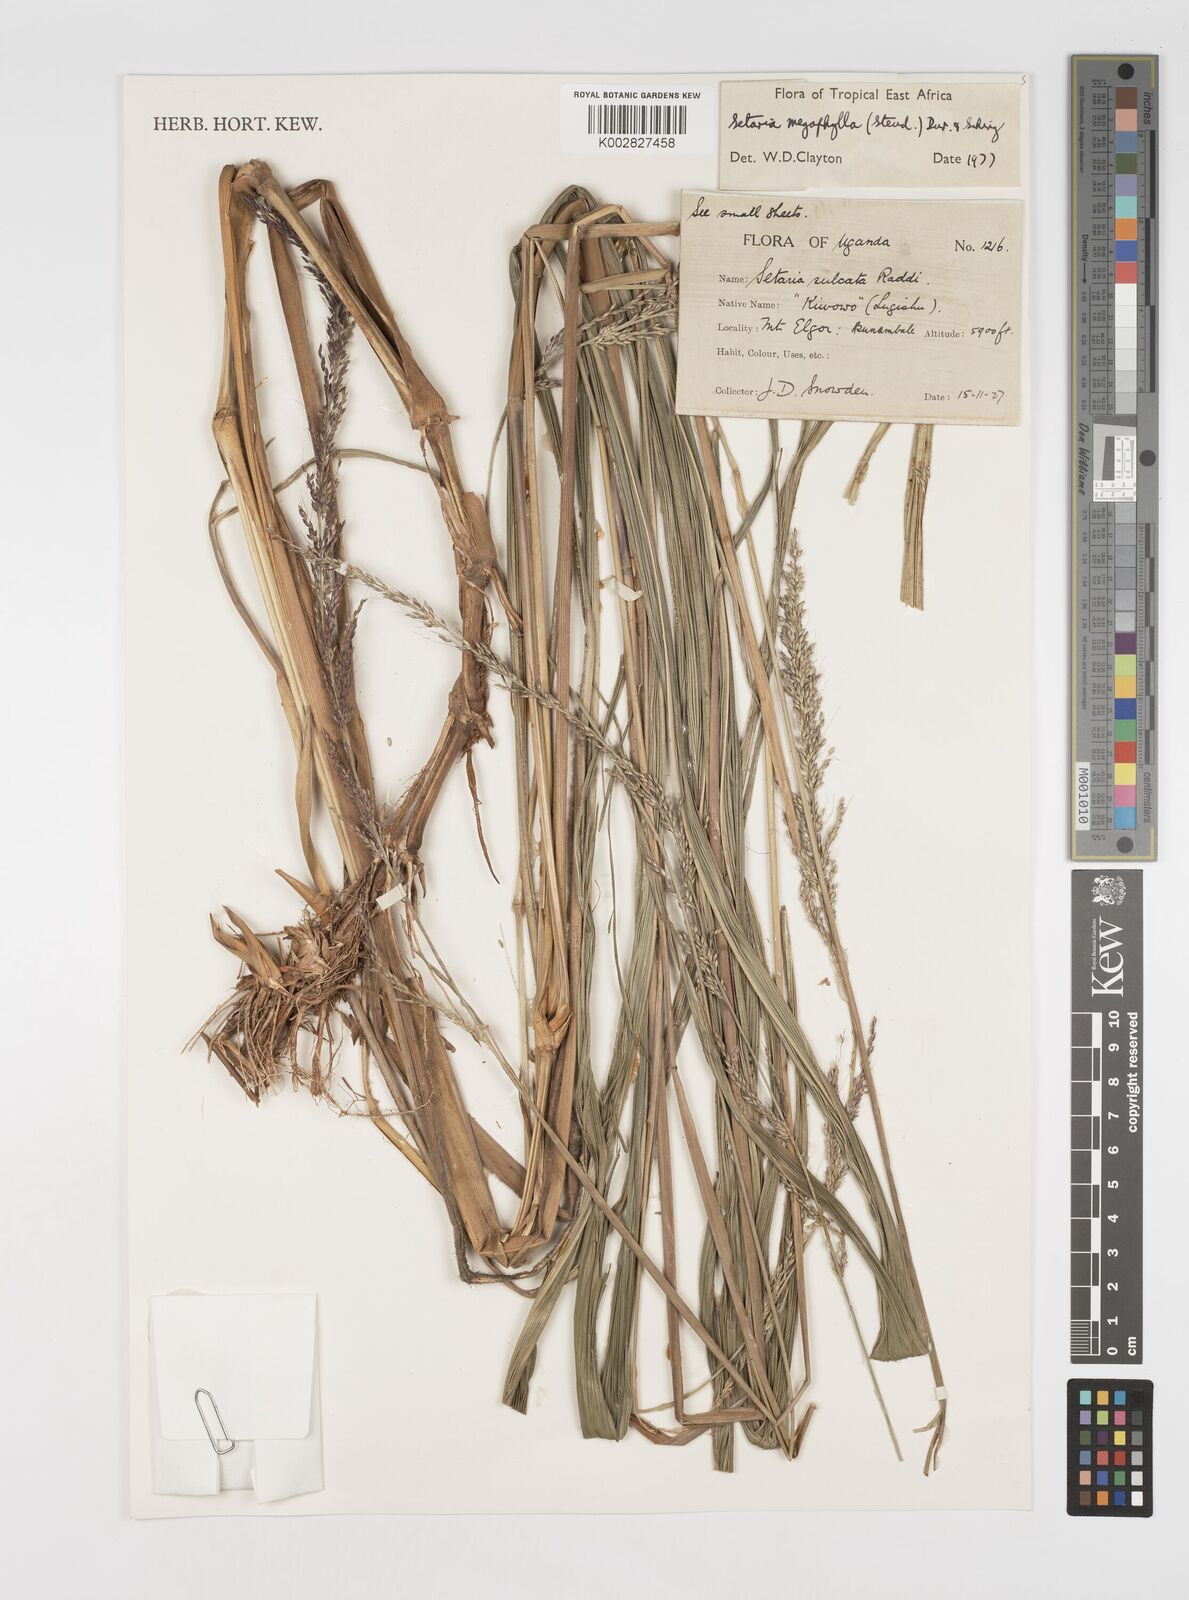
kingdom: Plantae
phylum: Tracheophyta
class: Liliopsida
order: Poales
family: Poaceae
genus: Setaria
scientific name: Setaria megaphylla
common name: Bigleaf bristlegrass
